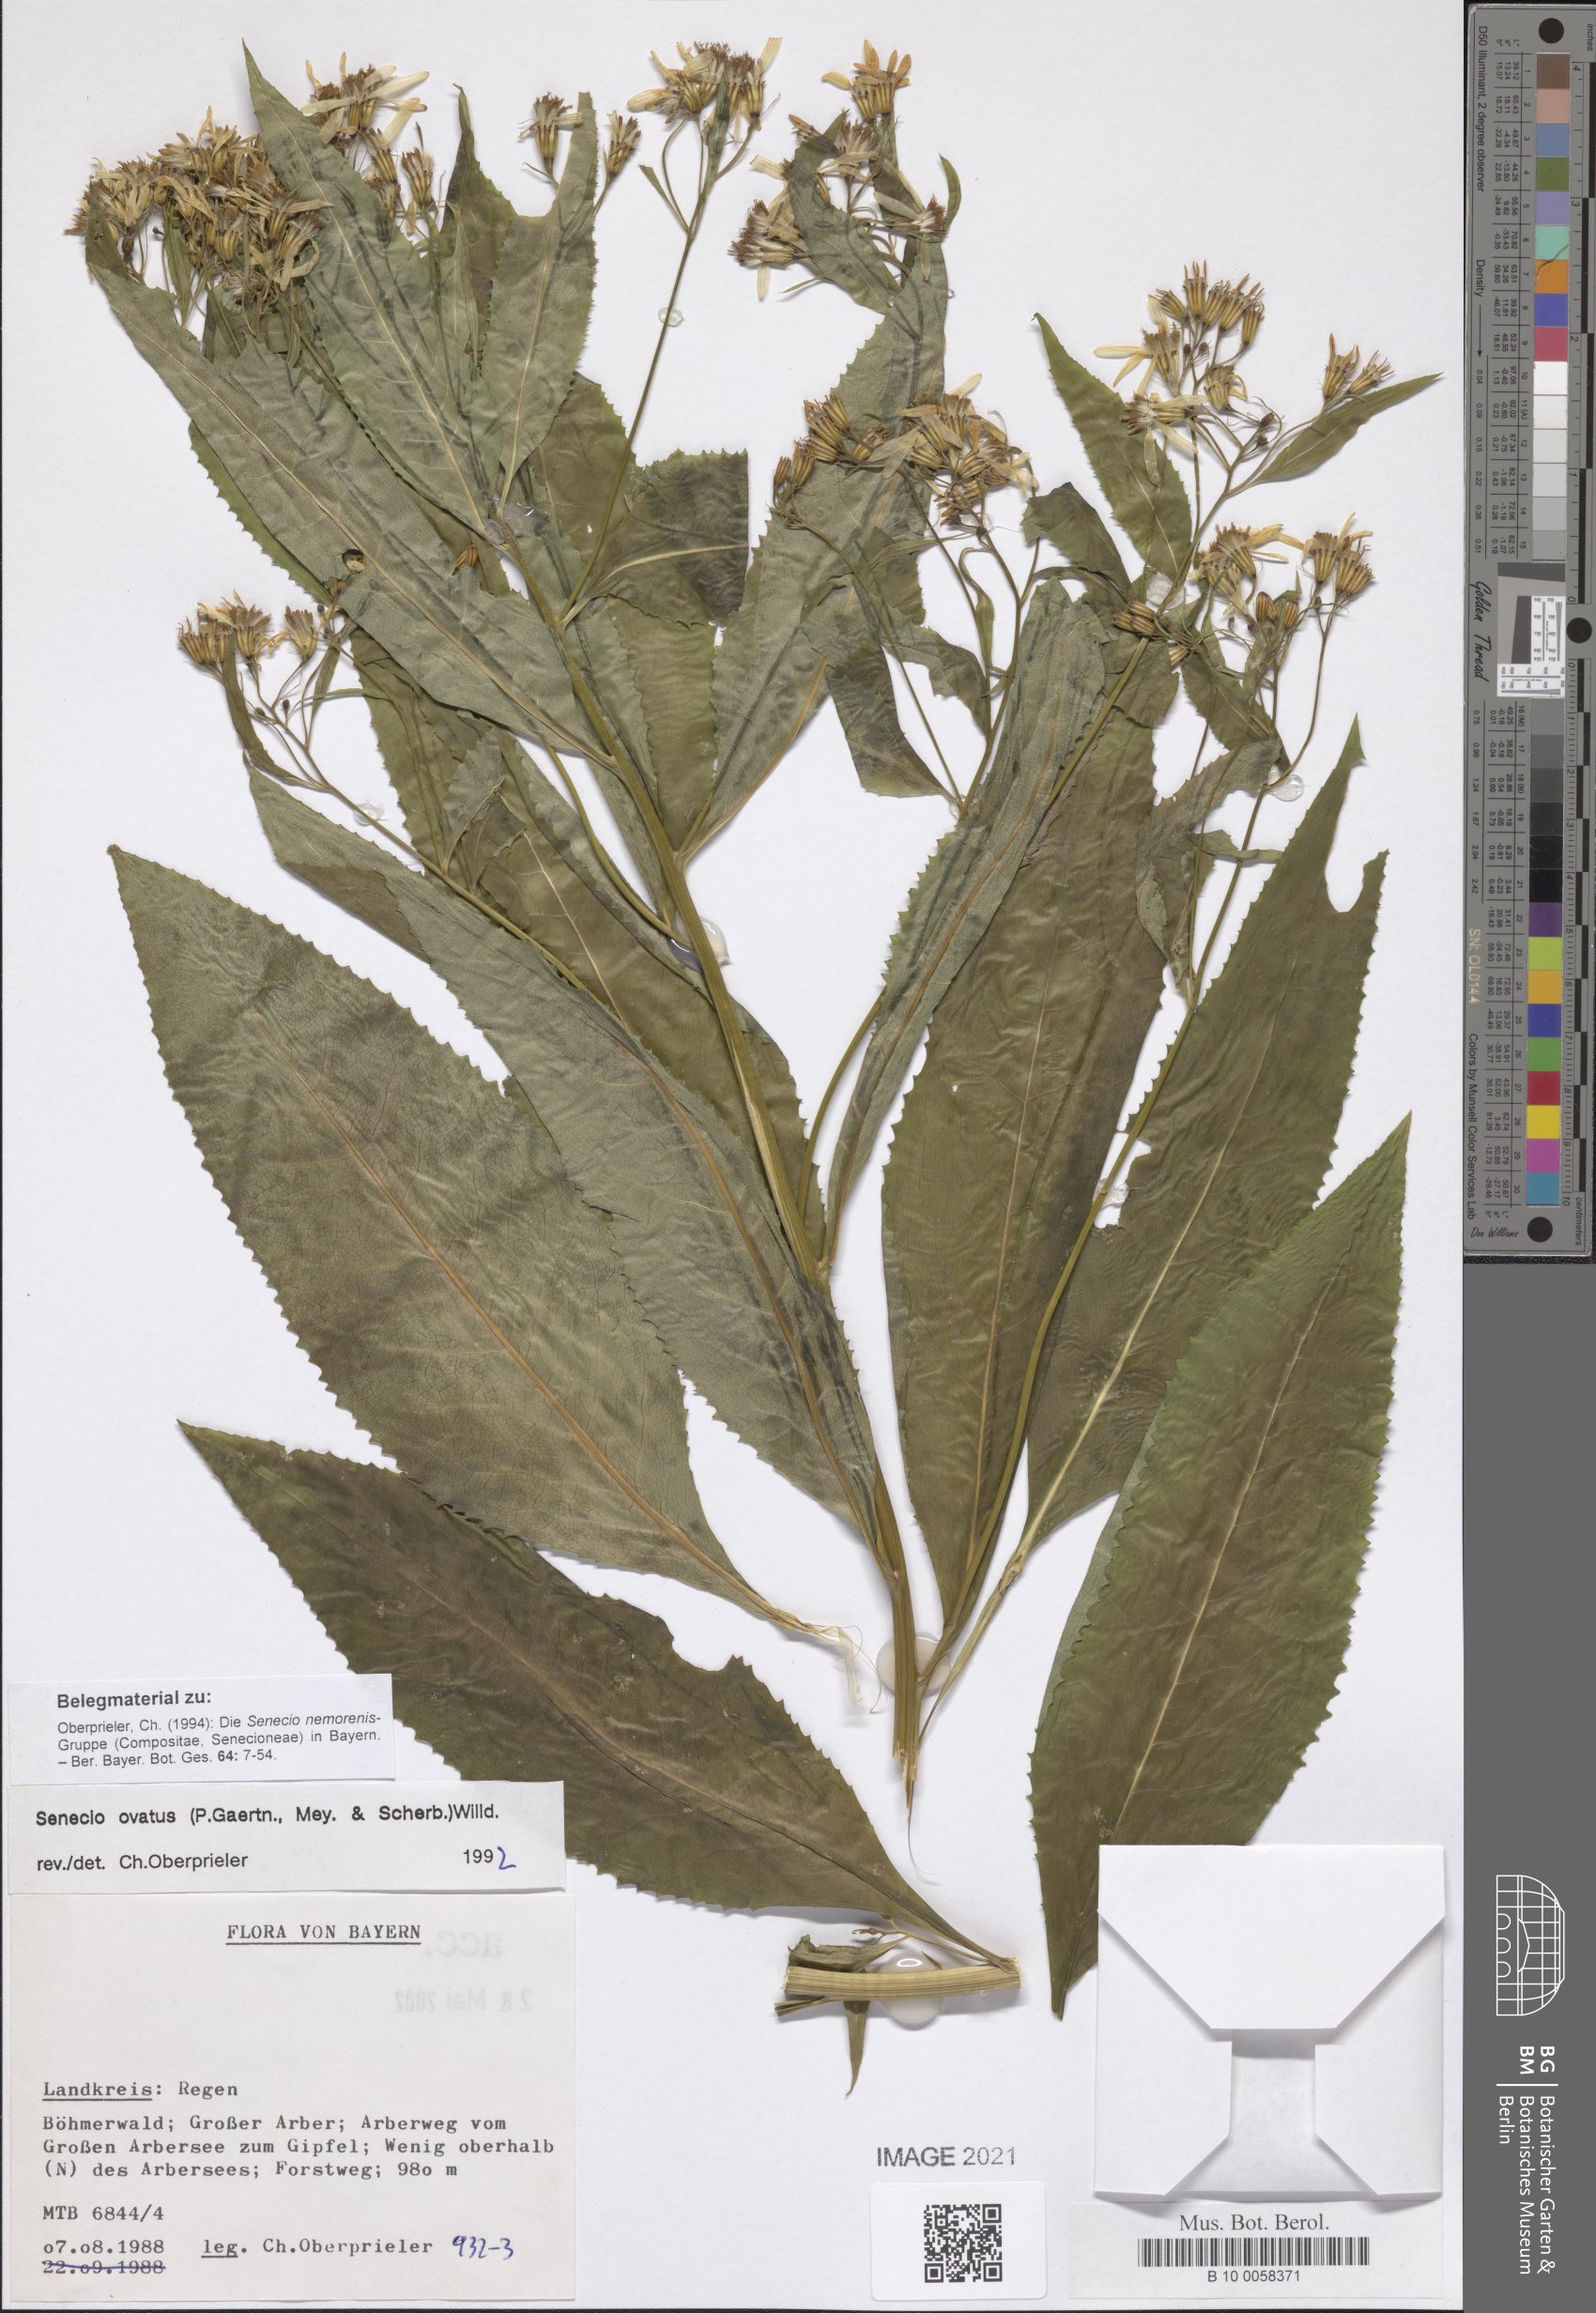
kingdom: Plantae
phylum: Tracheophyta
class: Magnoliopsida
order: Asterales
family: Asteraceae
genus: Senecio
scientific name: Senecio ovatus
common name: Wood ragwort
